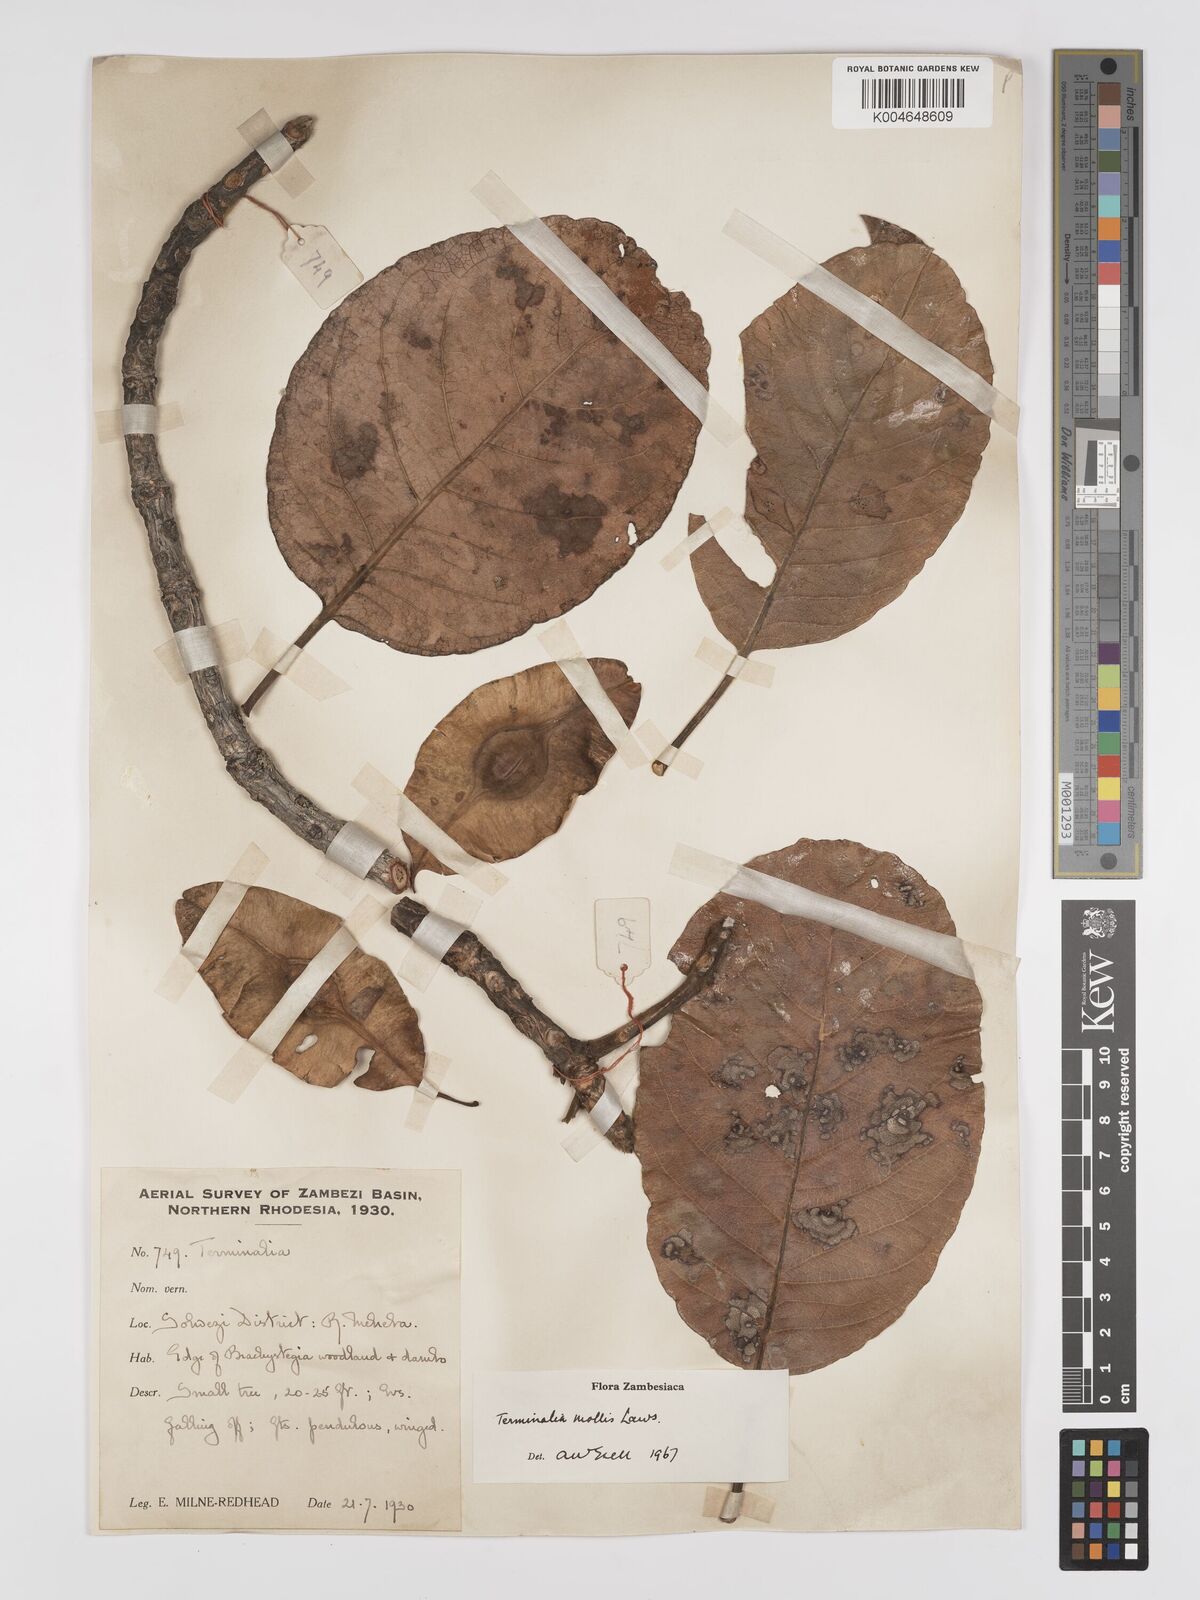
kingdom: Plantae
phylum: Tracheophyta
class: Magnoliopsida
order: Myrtales
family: Combretaceae
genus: Terminalia
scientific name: Terminalia
